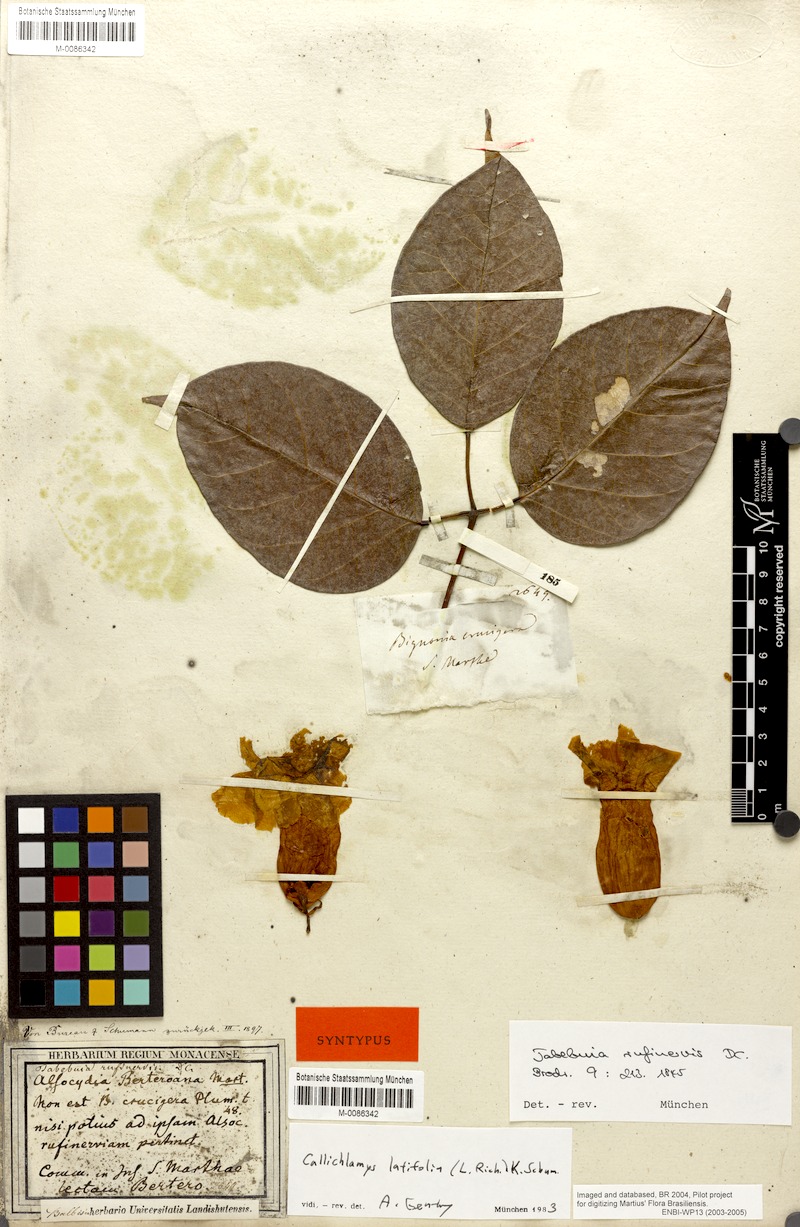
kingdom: Plantae
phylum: Tracheophyta
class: Magnoliopsida
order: Lamiales
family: Bignoniaceae
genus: Callichlamys
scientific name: Callichlamys latifolia
